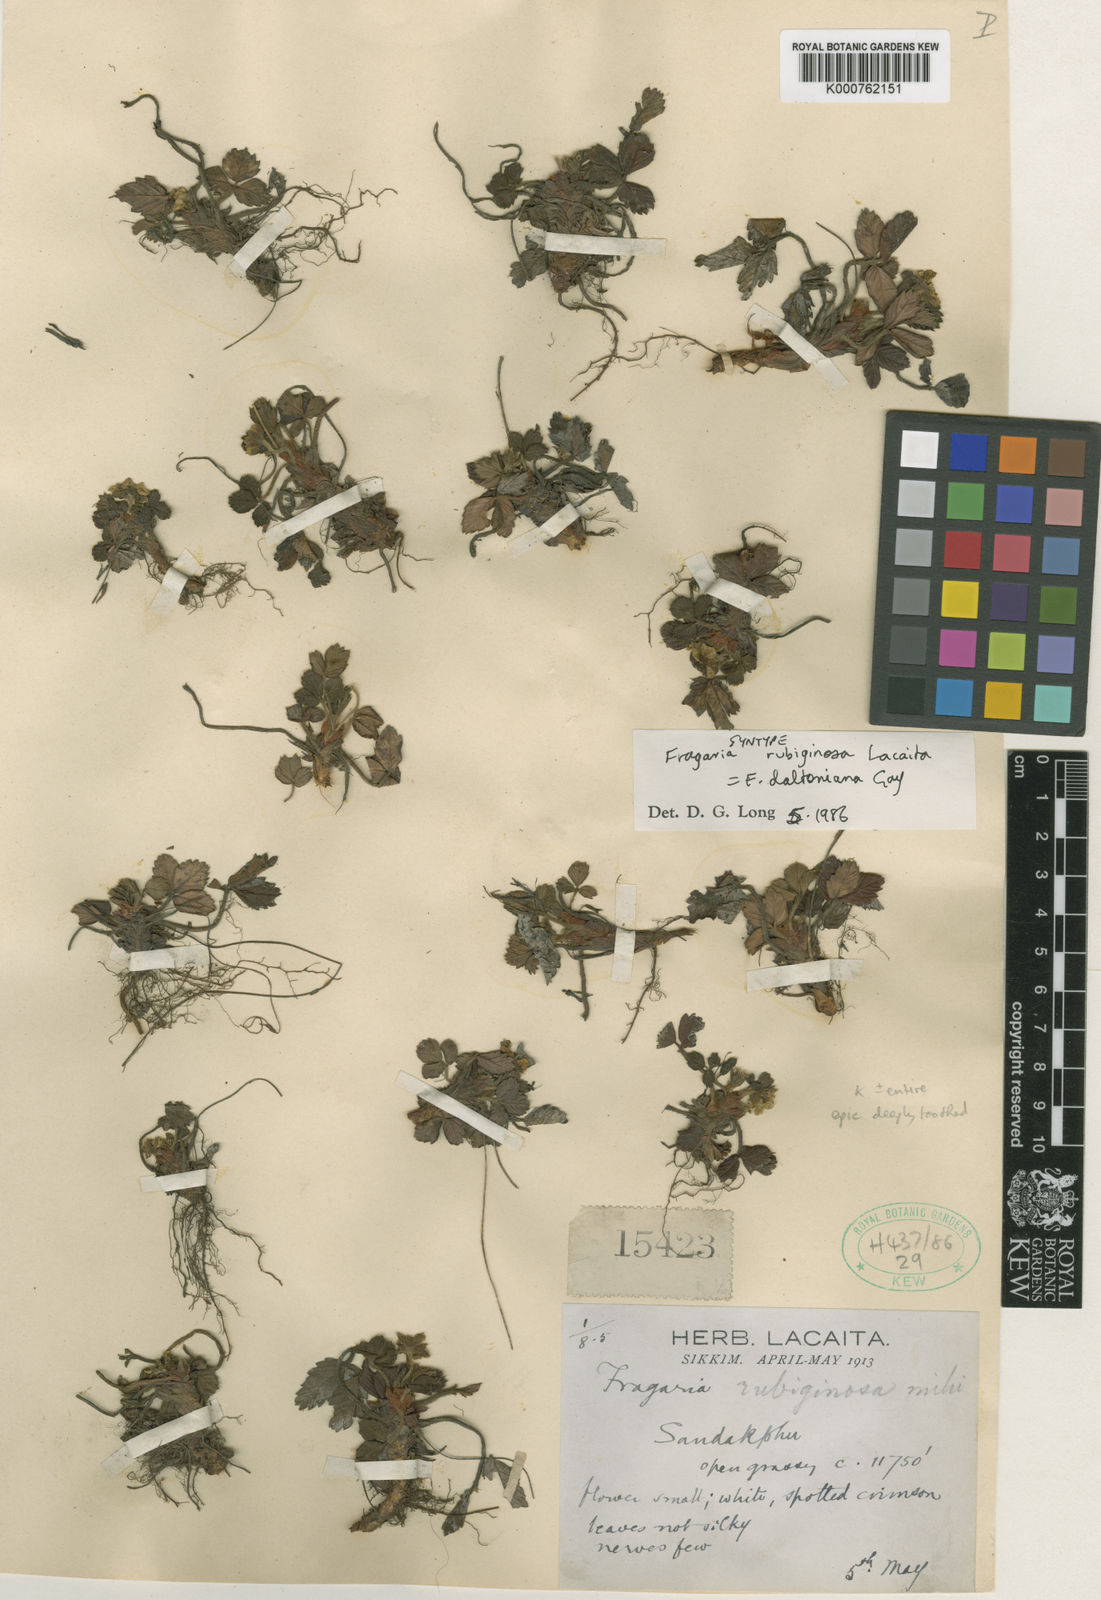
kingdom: Plantae
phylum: Tracheophyta
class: Magnoliopsida
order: Rosales
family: Rosaceae
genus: Fragaria
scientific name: Fragaria vesca
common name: Wild strawberry
